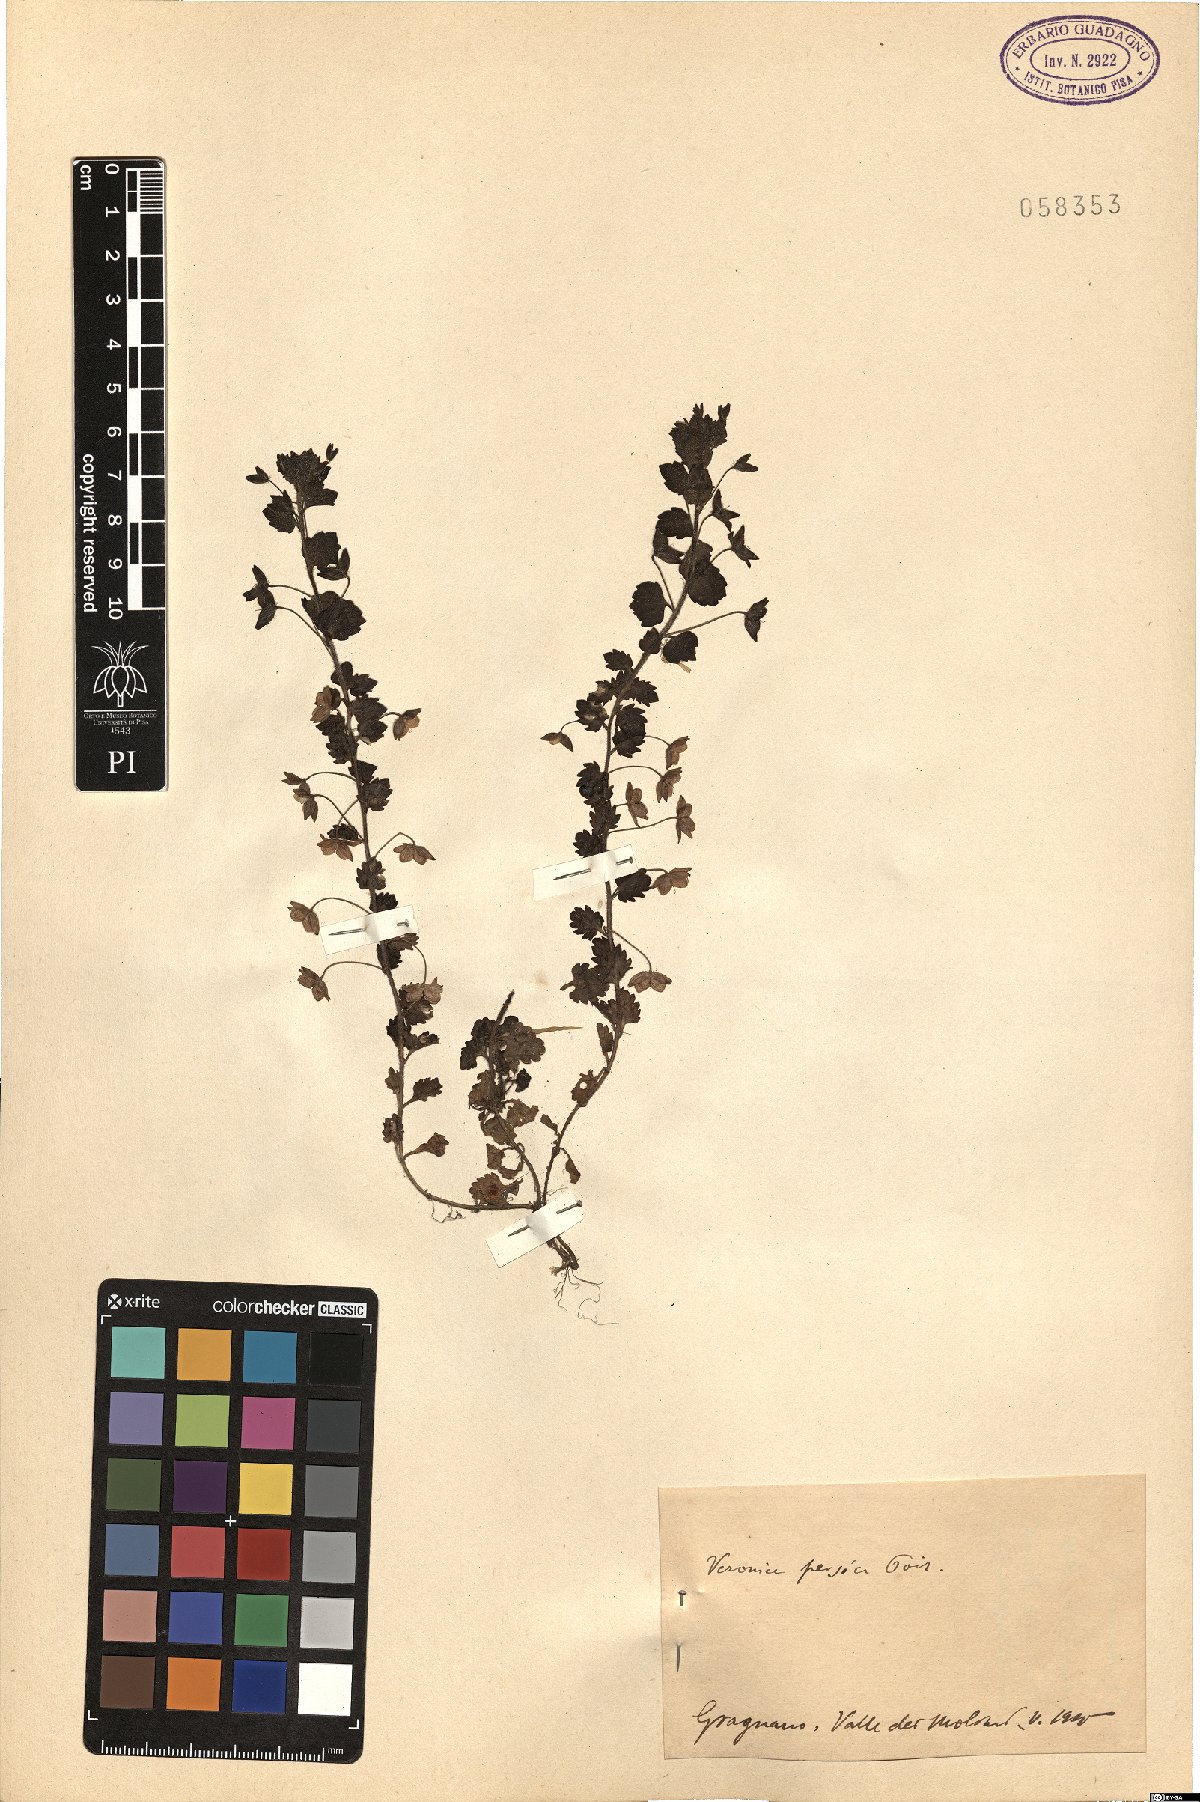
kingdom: Plantae
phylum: Tracheophyta
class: Magnoliopsida
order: Lamiales
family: Plantaginaceae
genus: Veronica
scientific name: Veronica persica
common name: Common field-speedwell
